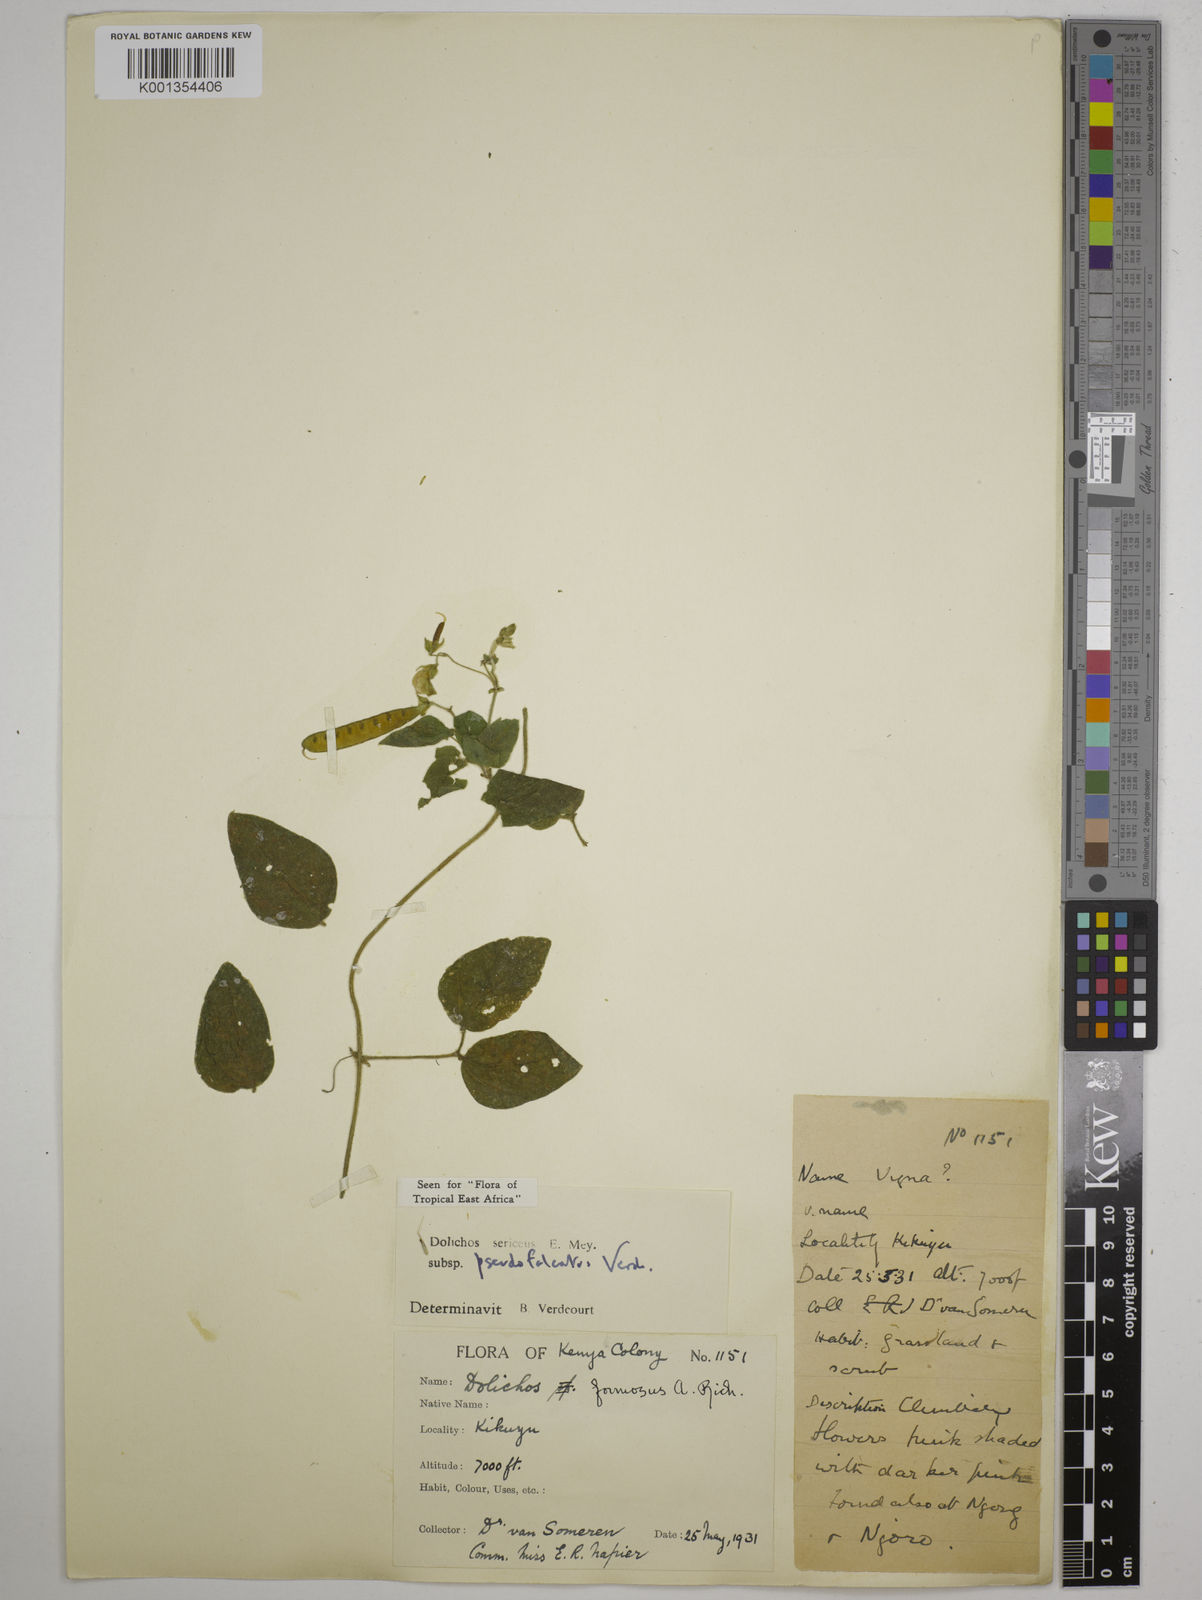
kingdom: Plantae
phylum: Tracheophyta
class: Magnoliopsida
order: Fabales
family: Fabaceae
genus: Dolichos
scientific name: Dolichos
